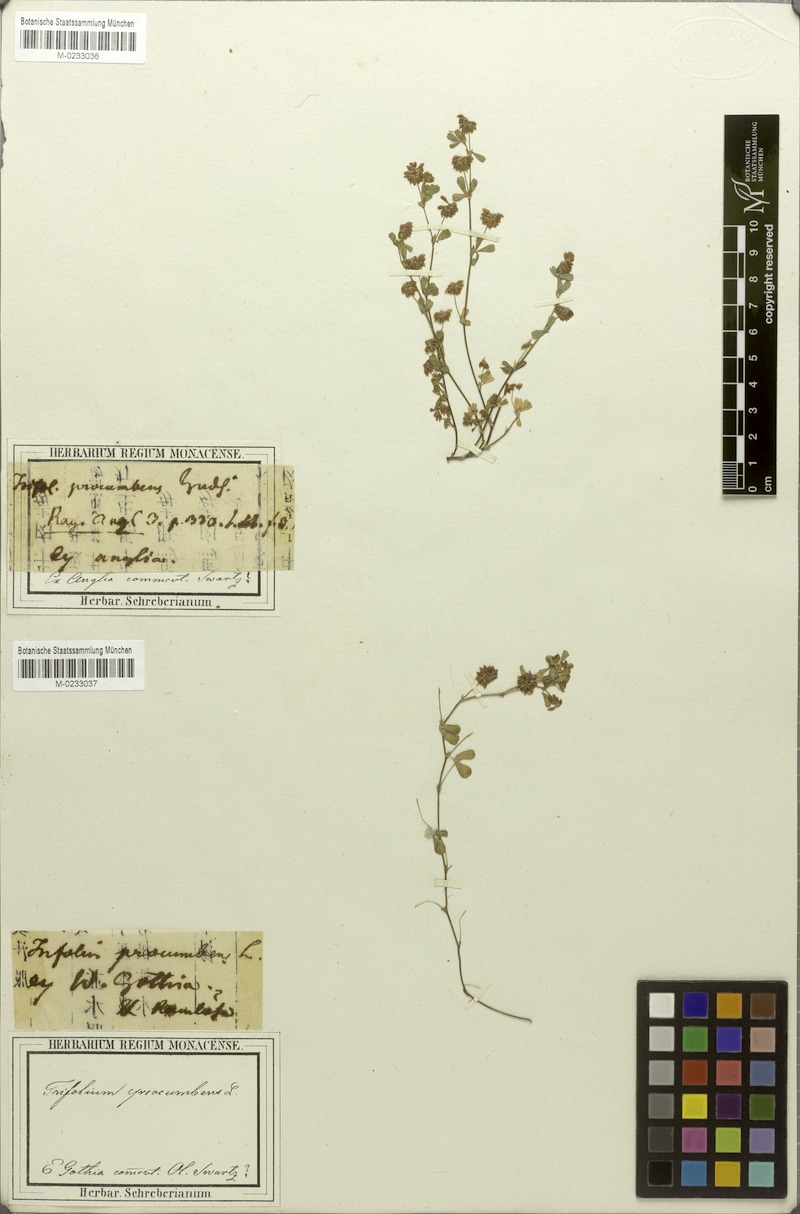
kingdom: Plantae
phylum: Tracheophyta
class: Magnoliopsida
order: Fabales
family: Fabaceae
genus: Trifolium
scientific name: Trifolium campestre
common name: Field clover
